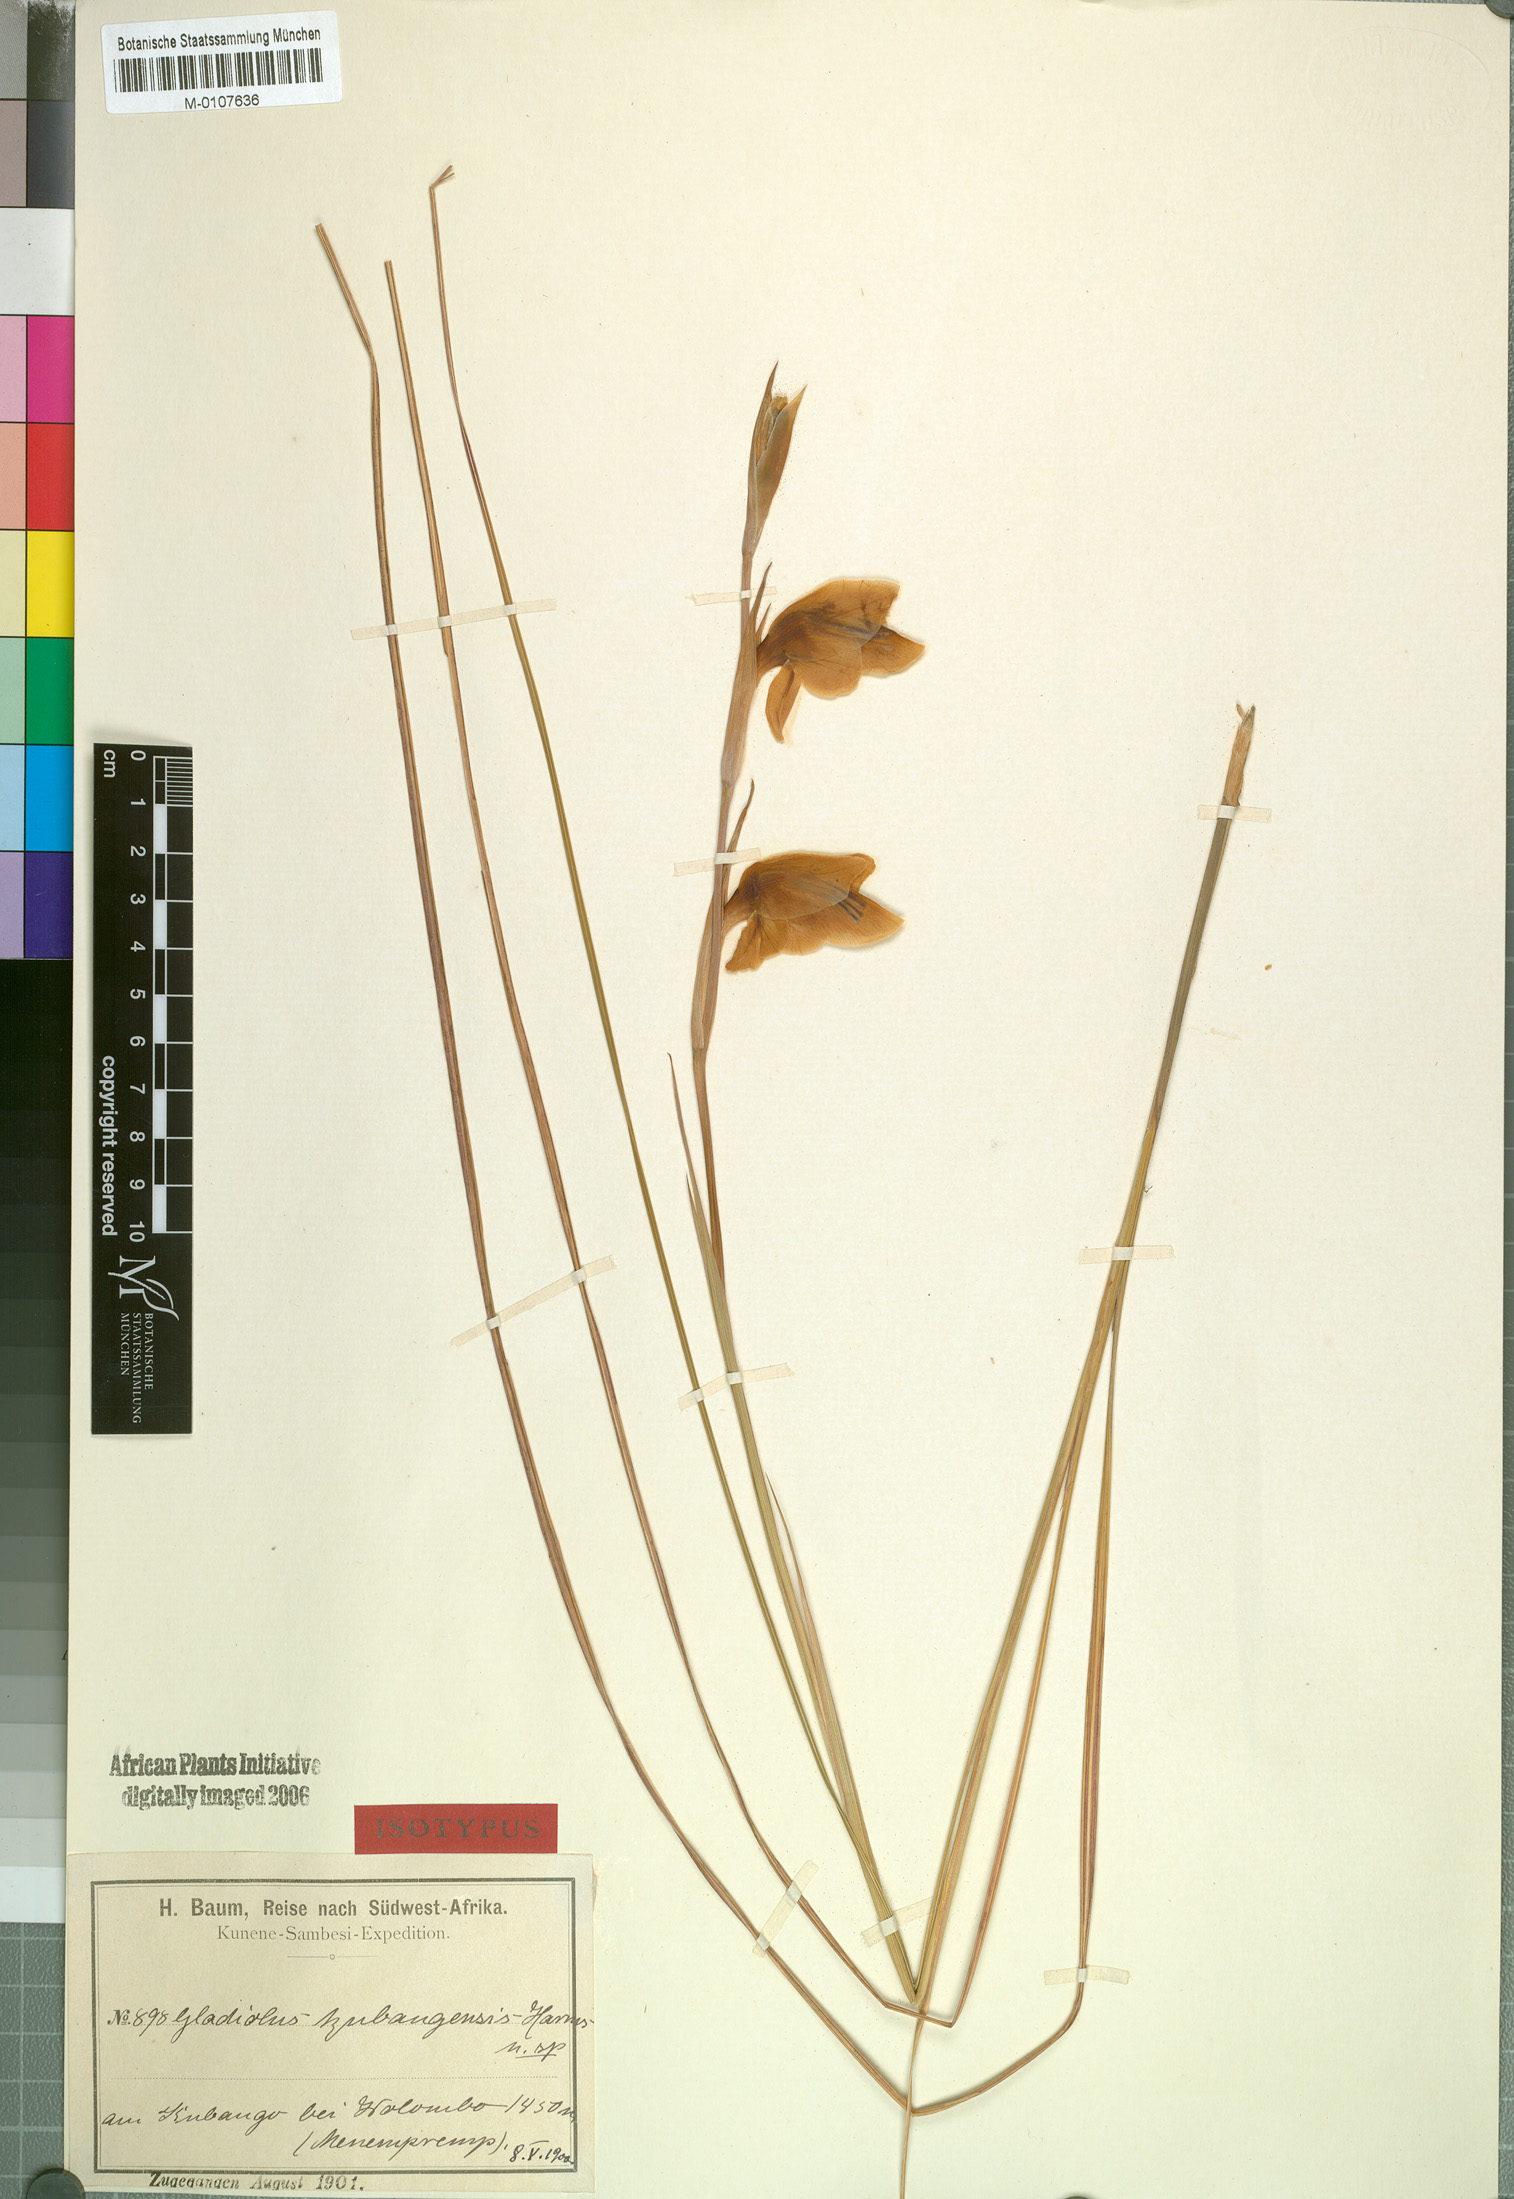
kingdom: Plantae
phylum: Tracheophyta
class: Liliopsida
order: Asparagales
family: Iridaceae
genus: Gladiolus
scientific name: Gladiolus baumii
